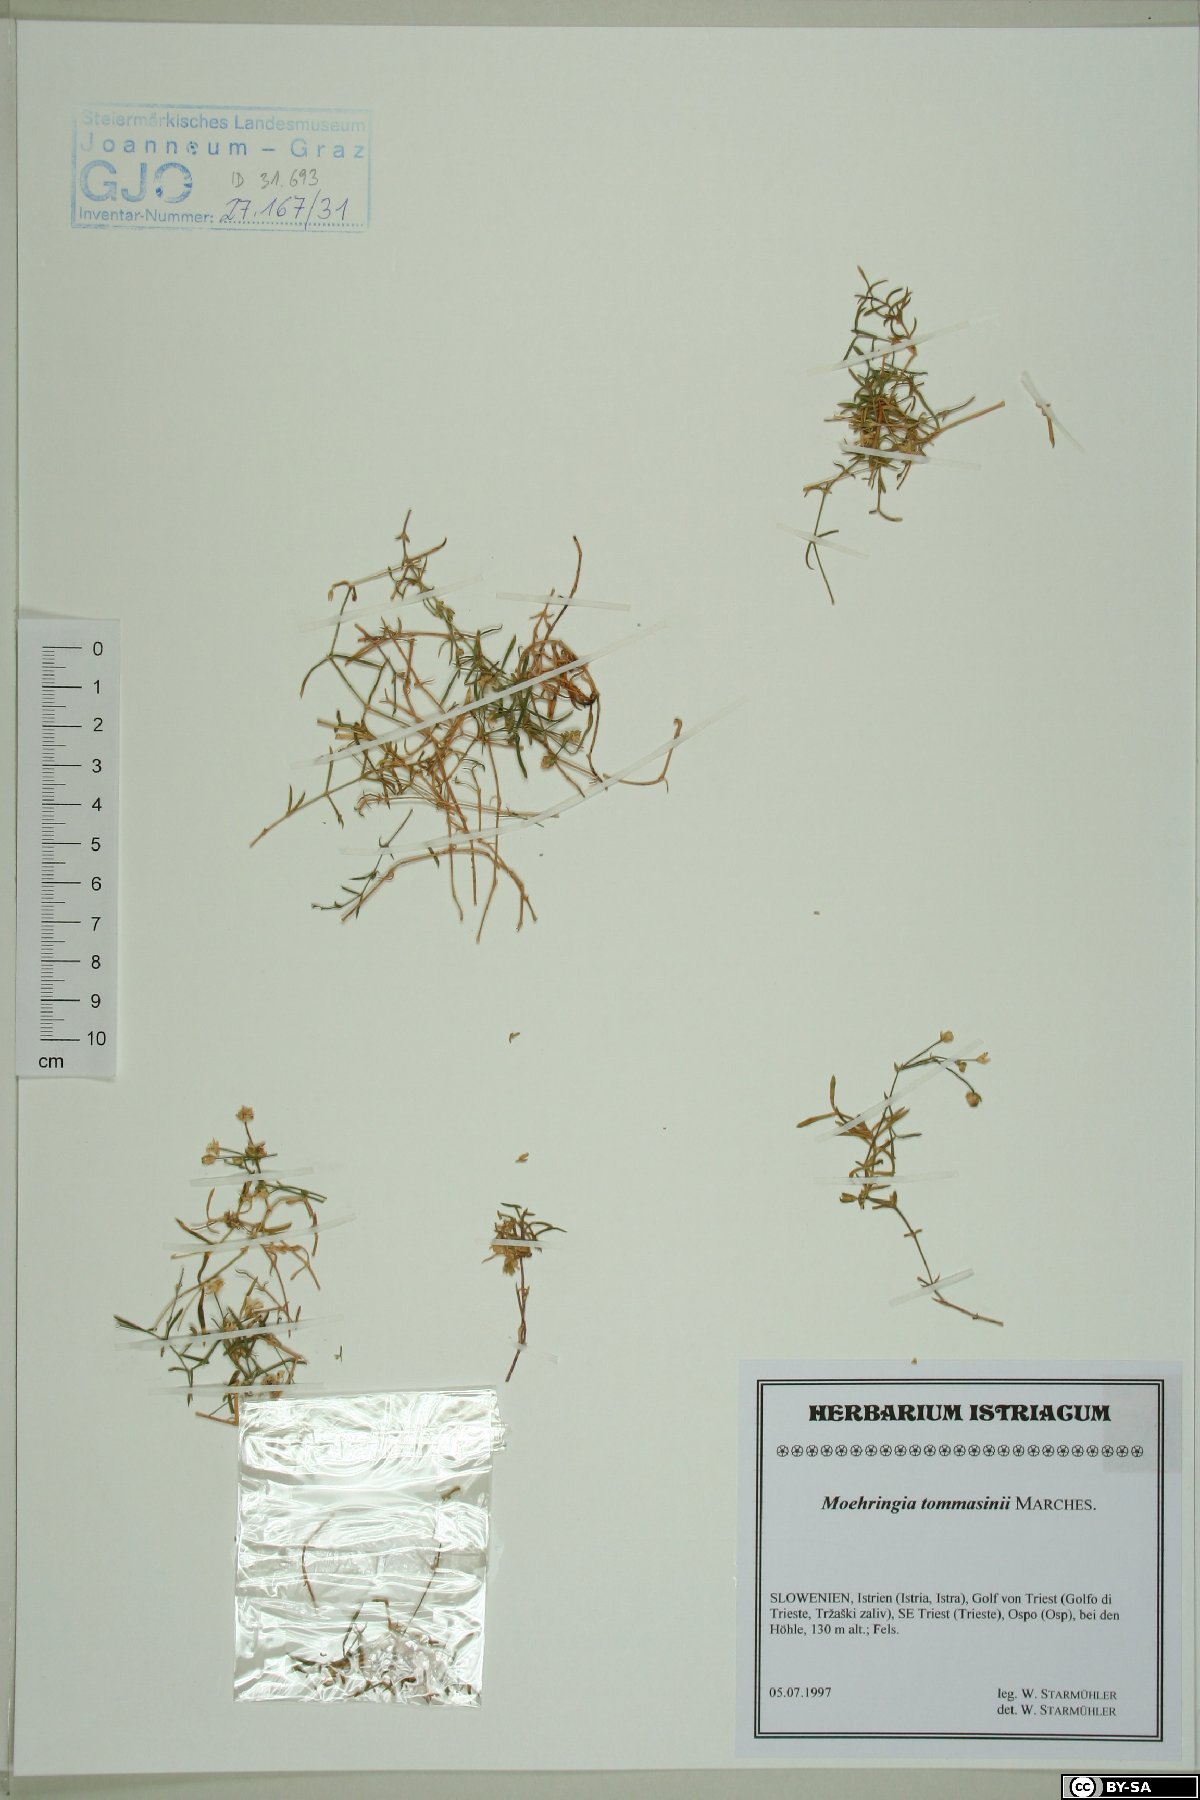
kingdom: Plantae
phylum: Tracheophyta
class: Magnoliopsida
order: Caryophyllales
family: Caryophyllaceae
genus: Moehringia
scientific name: Moehringia tommasinii
